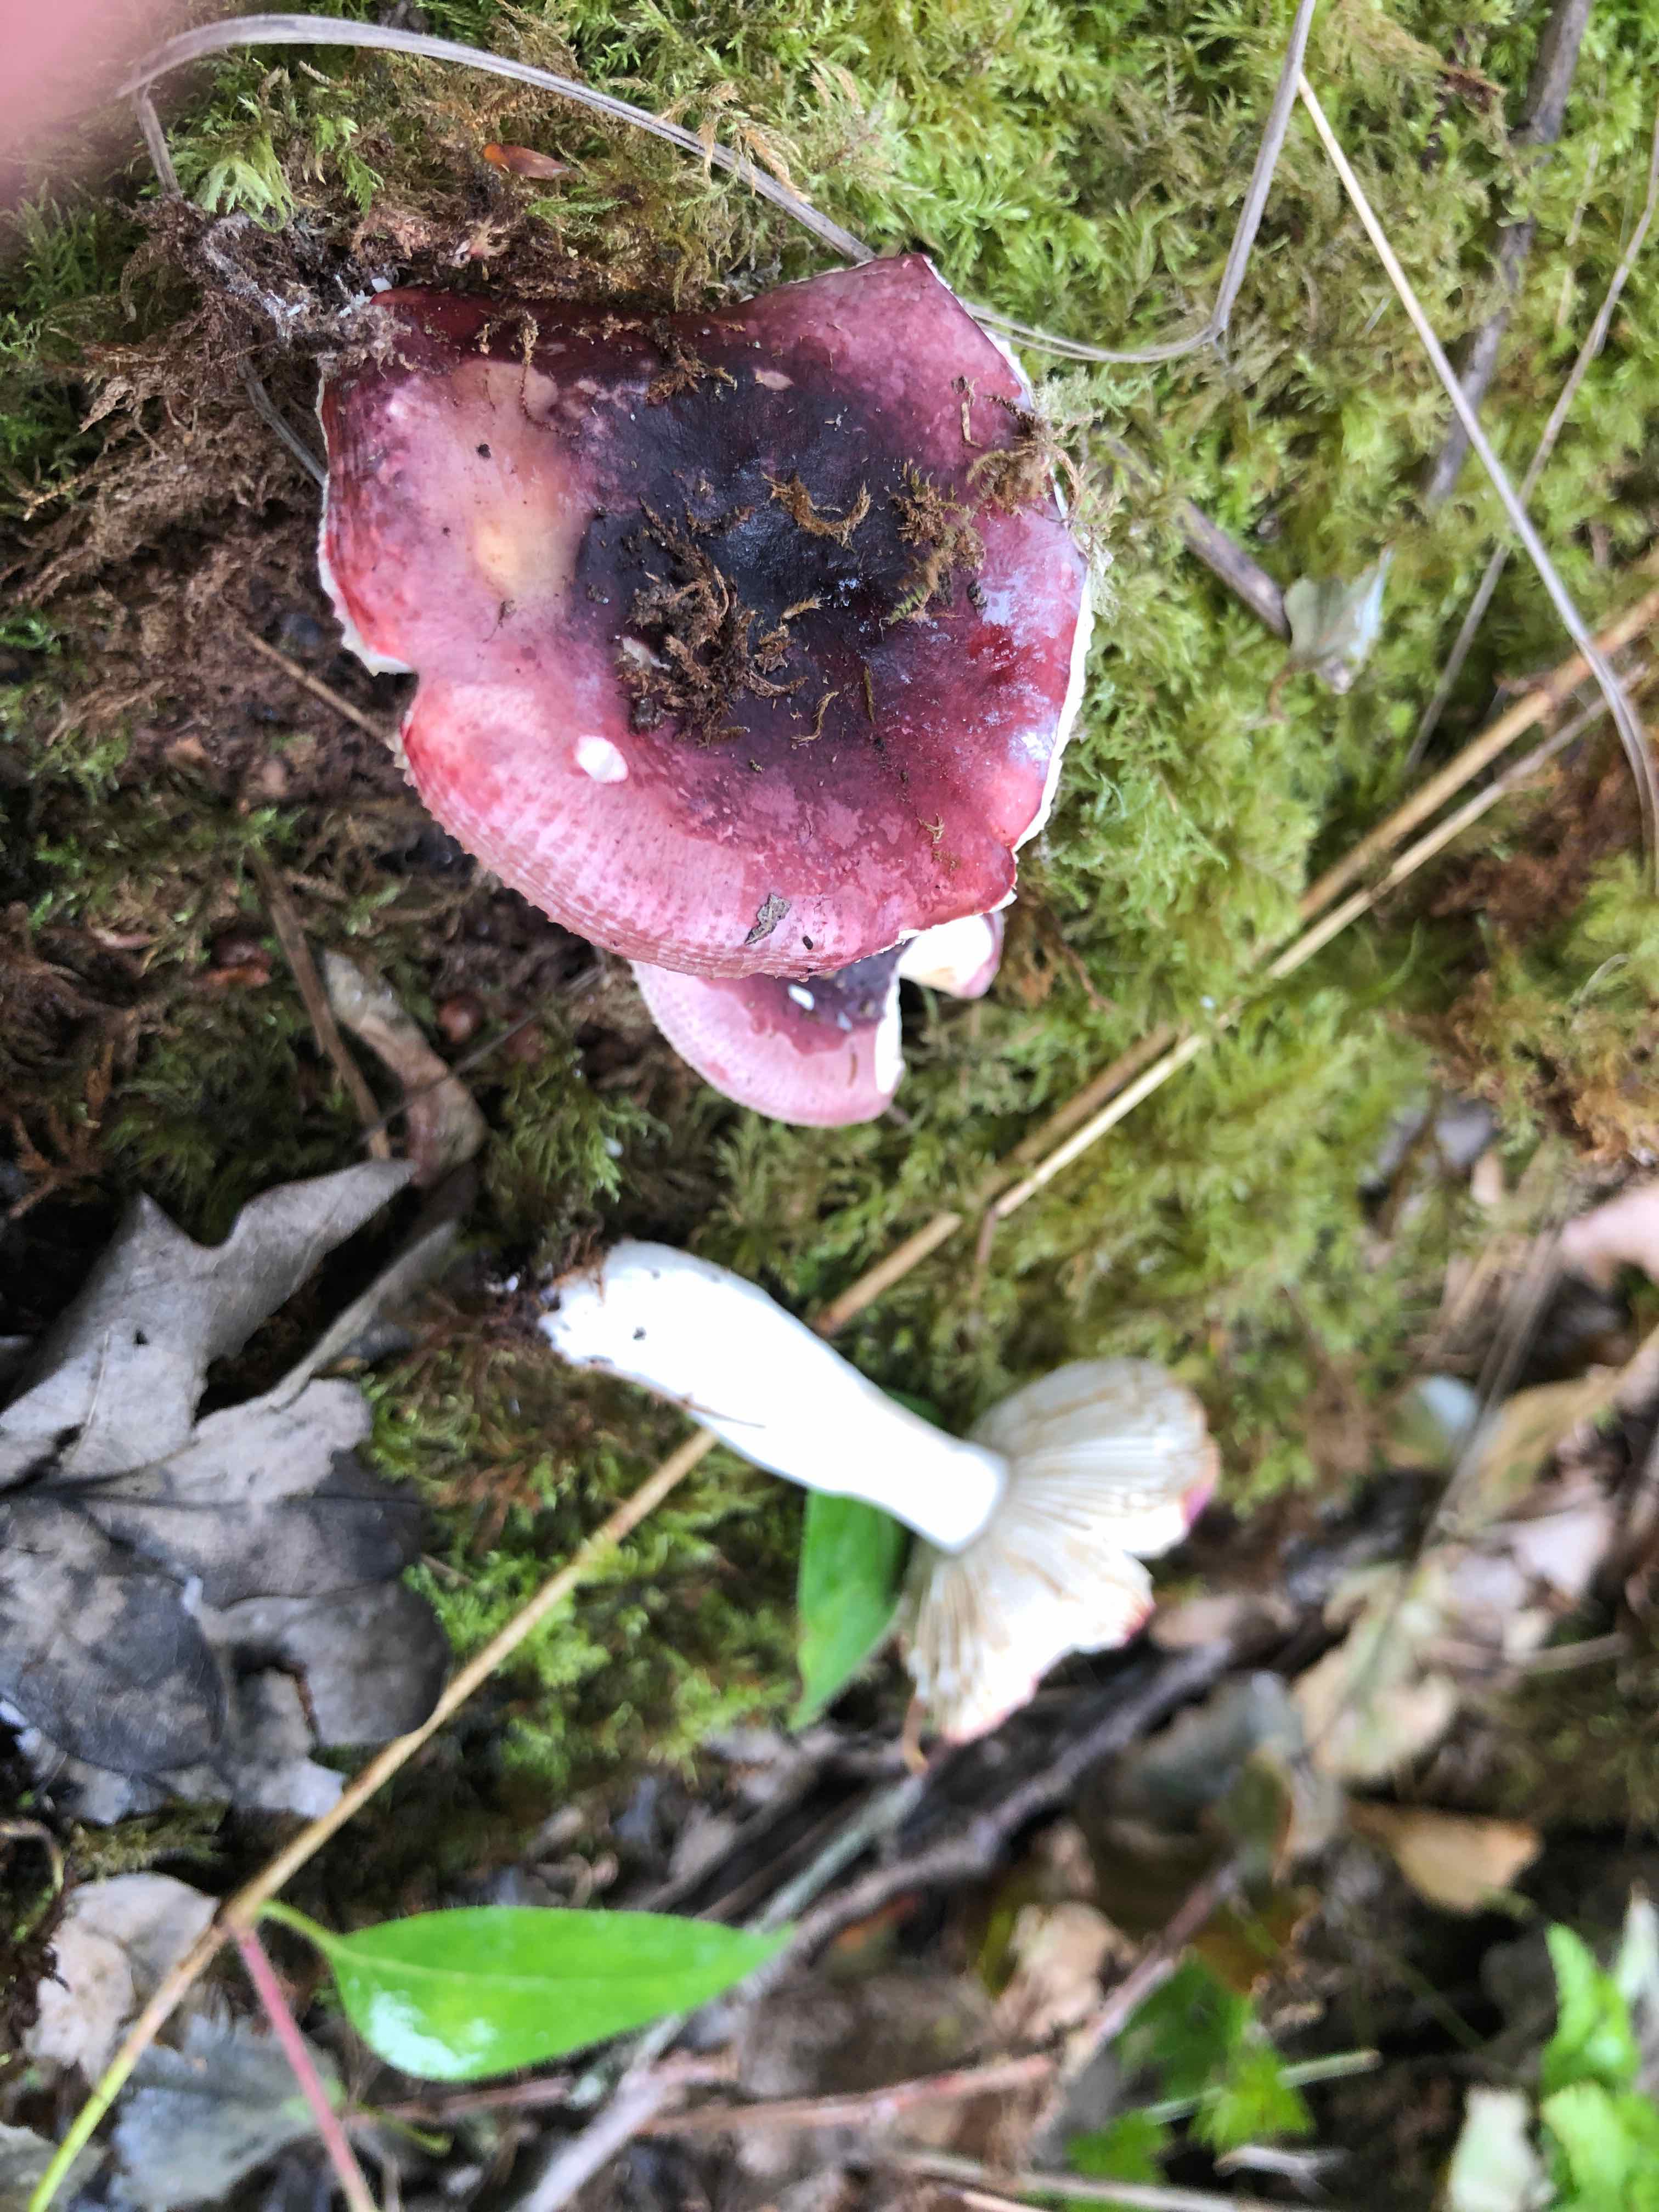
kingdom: Fungi
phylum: Basidiomycota
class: Agaricomycetes
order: Russulales
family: Russulaceae
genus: Russula
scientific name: Russula fragilis
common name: savbladet skørhat
